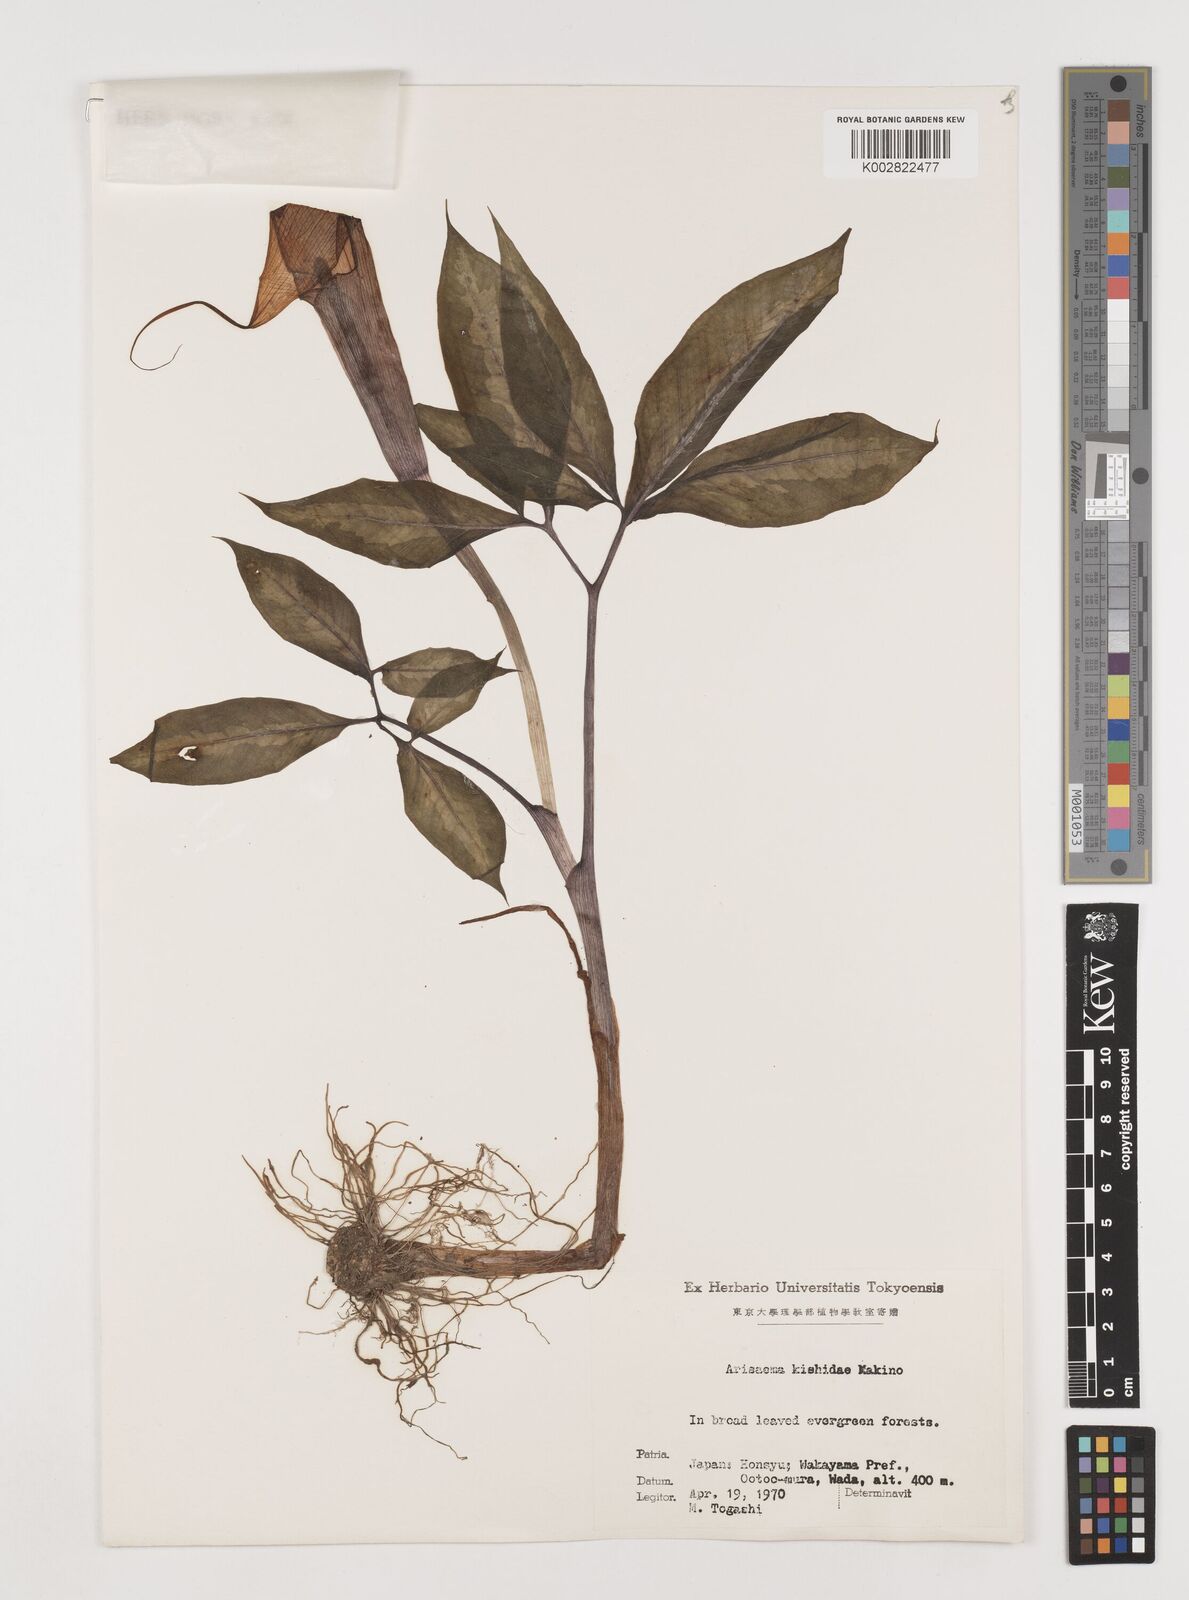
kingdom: Plantae
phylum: Tracheophyta
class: Liliopsida
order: Alismatales
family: Araceae
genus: Arisaema
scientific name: Arisaema kishidae
